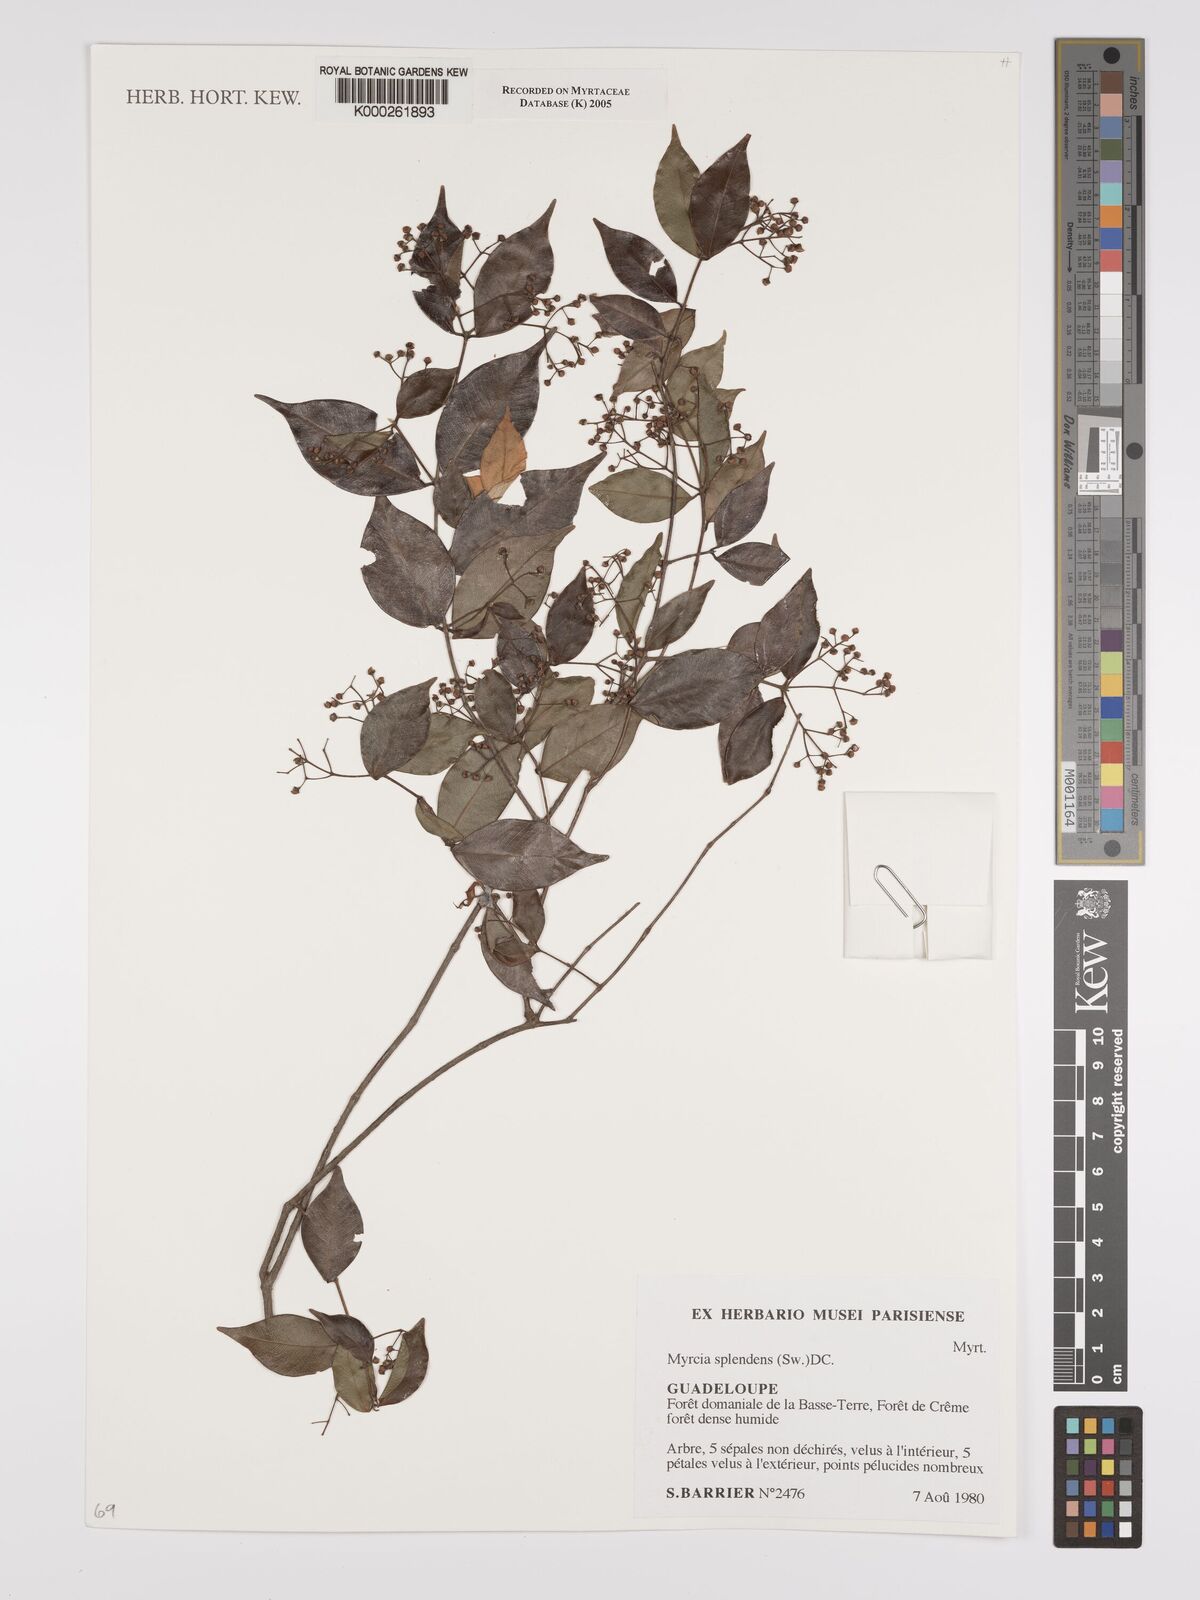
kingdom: Plantae
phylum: Tracheophyta
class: Magnoliopsida
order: Myrtales
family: Myrtaceae
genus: Myrcia
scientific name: Myrcia splendens
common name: Surinam cherry
